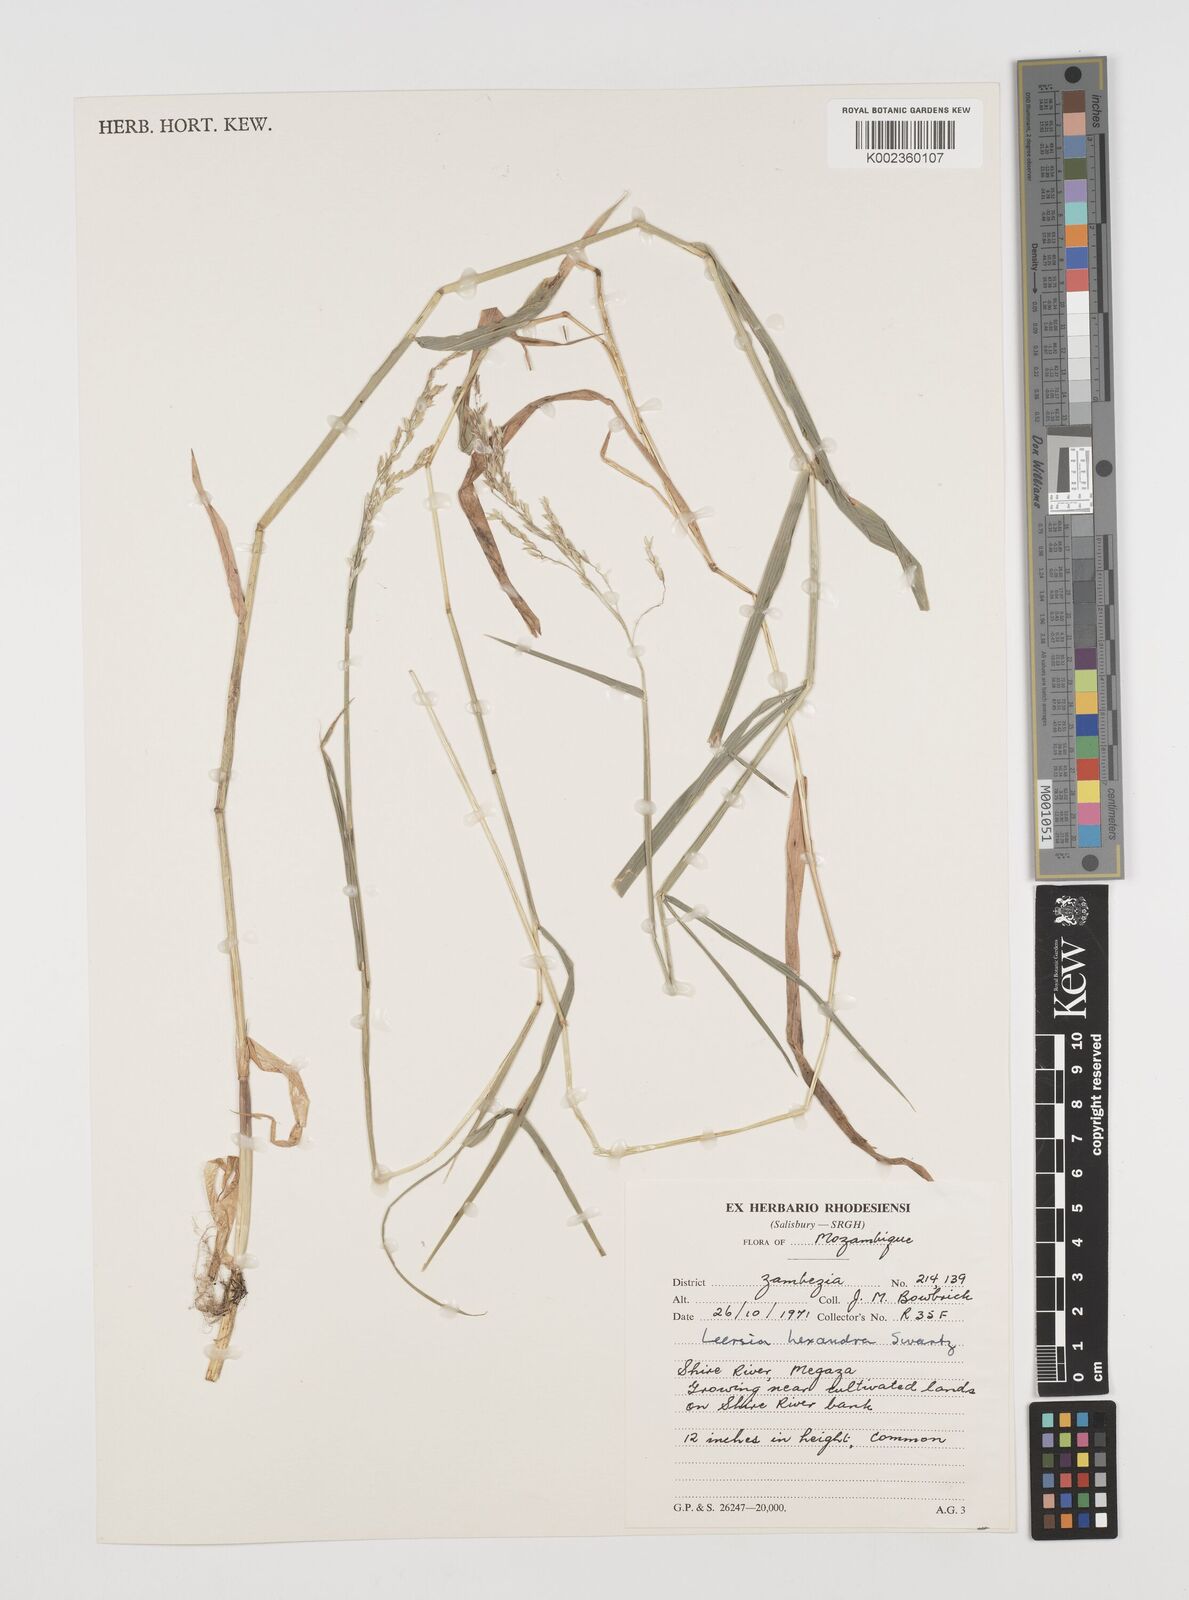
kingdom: Plantae
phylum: Tracheophyta
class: Liliopsida
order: Poales
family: Poaceae
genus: Leersia
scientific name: Leersia hexandra
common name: Southern cut grass
